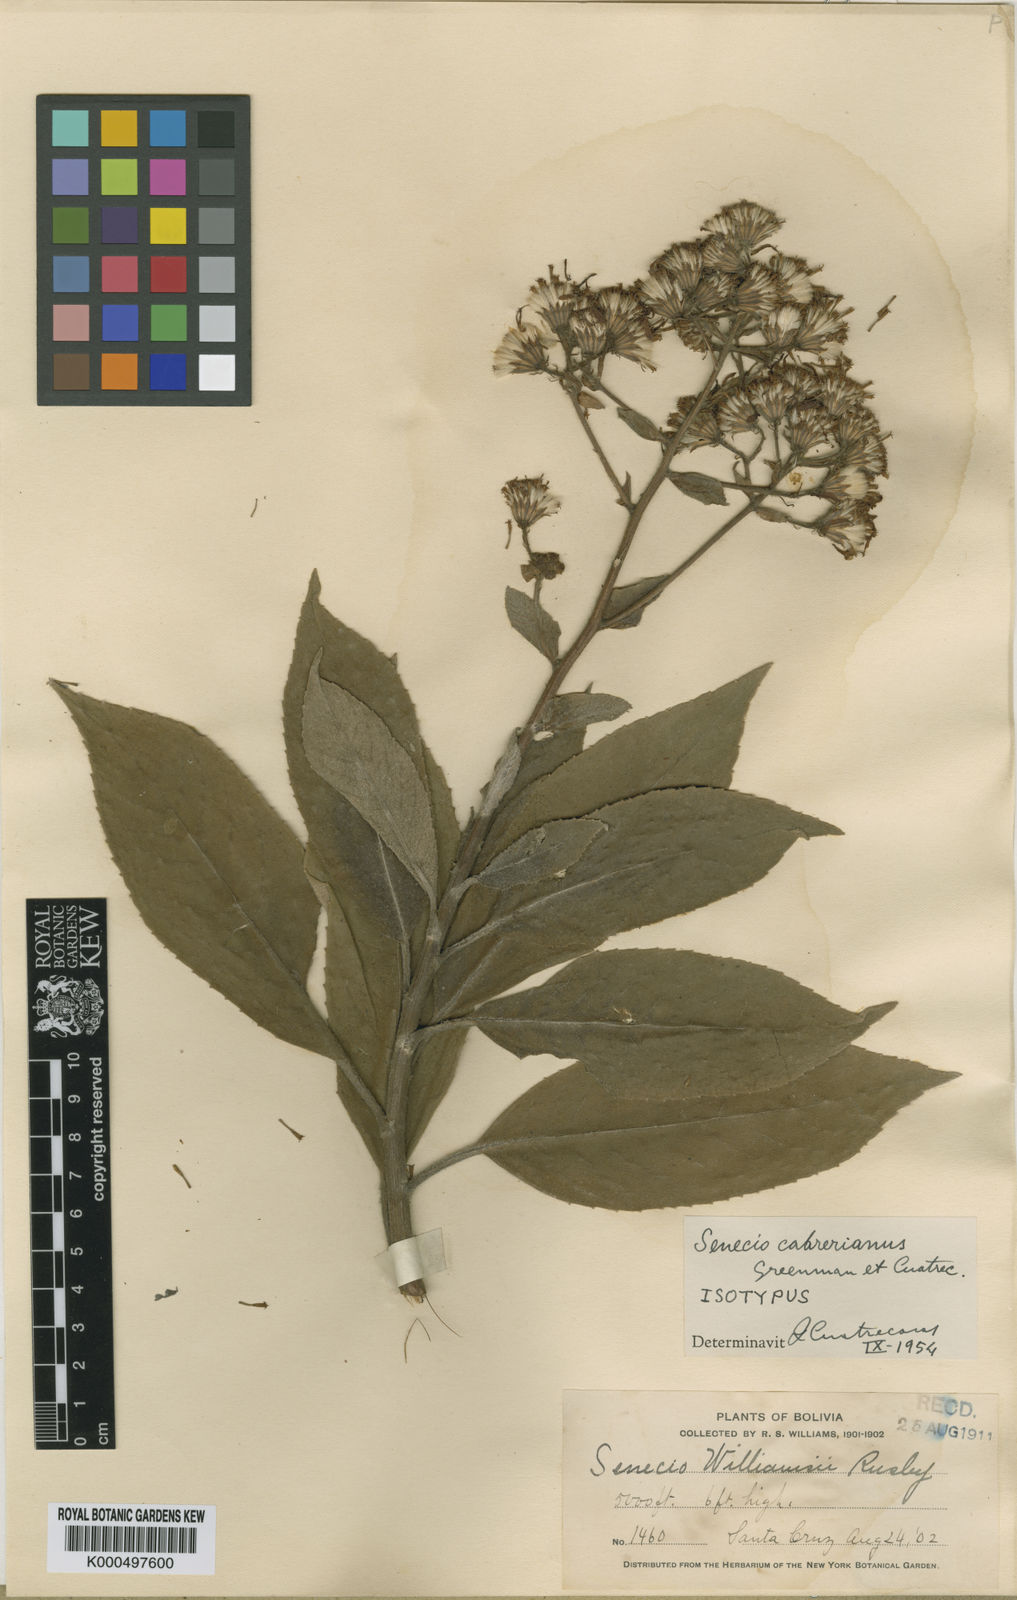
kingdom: Plantae
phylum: Tracheophyta
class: Magnoliopsida
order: Asterales
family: Asteraceae
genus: Dendrophorbium
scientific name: Dendrophorbium cabrerianum
